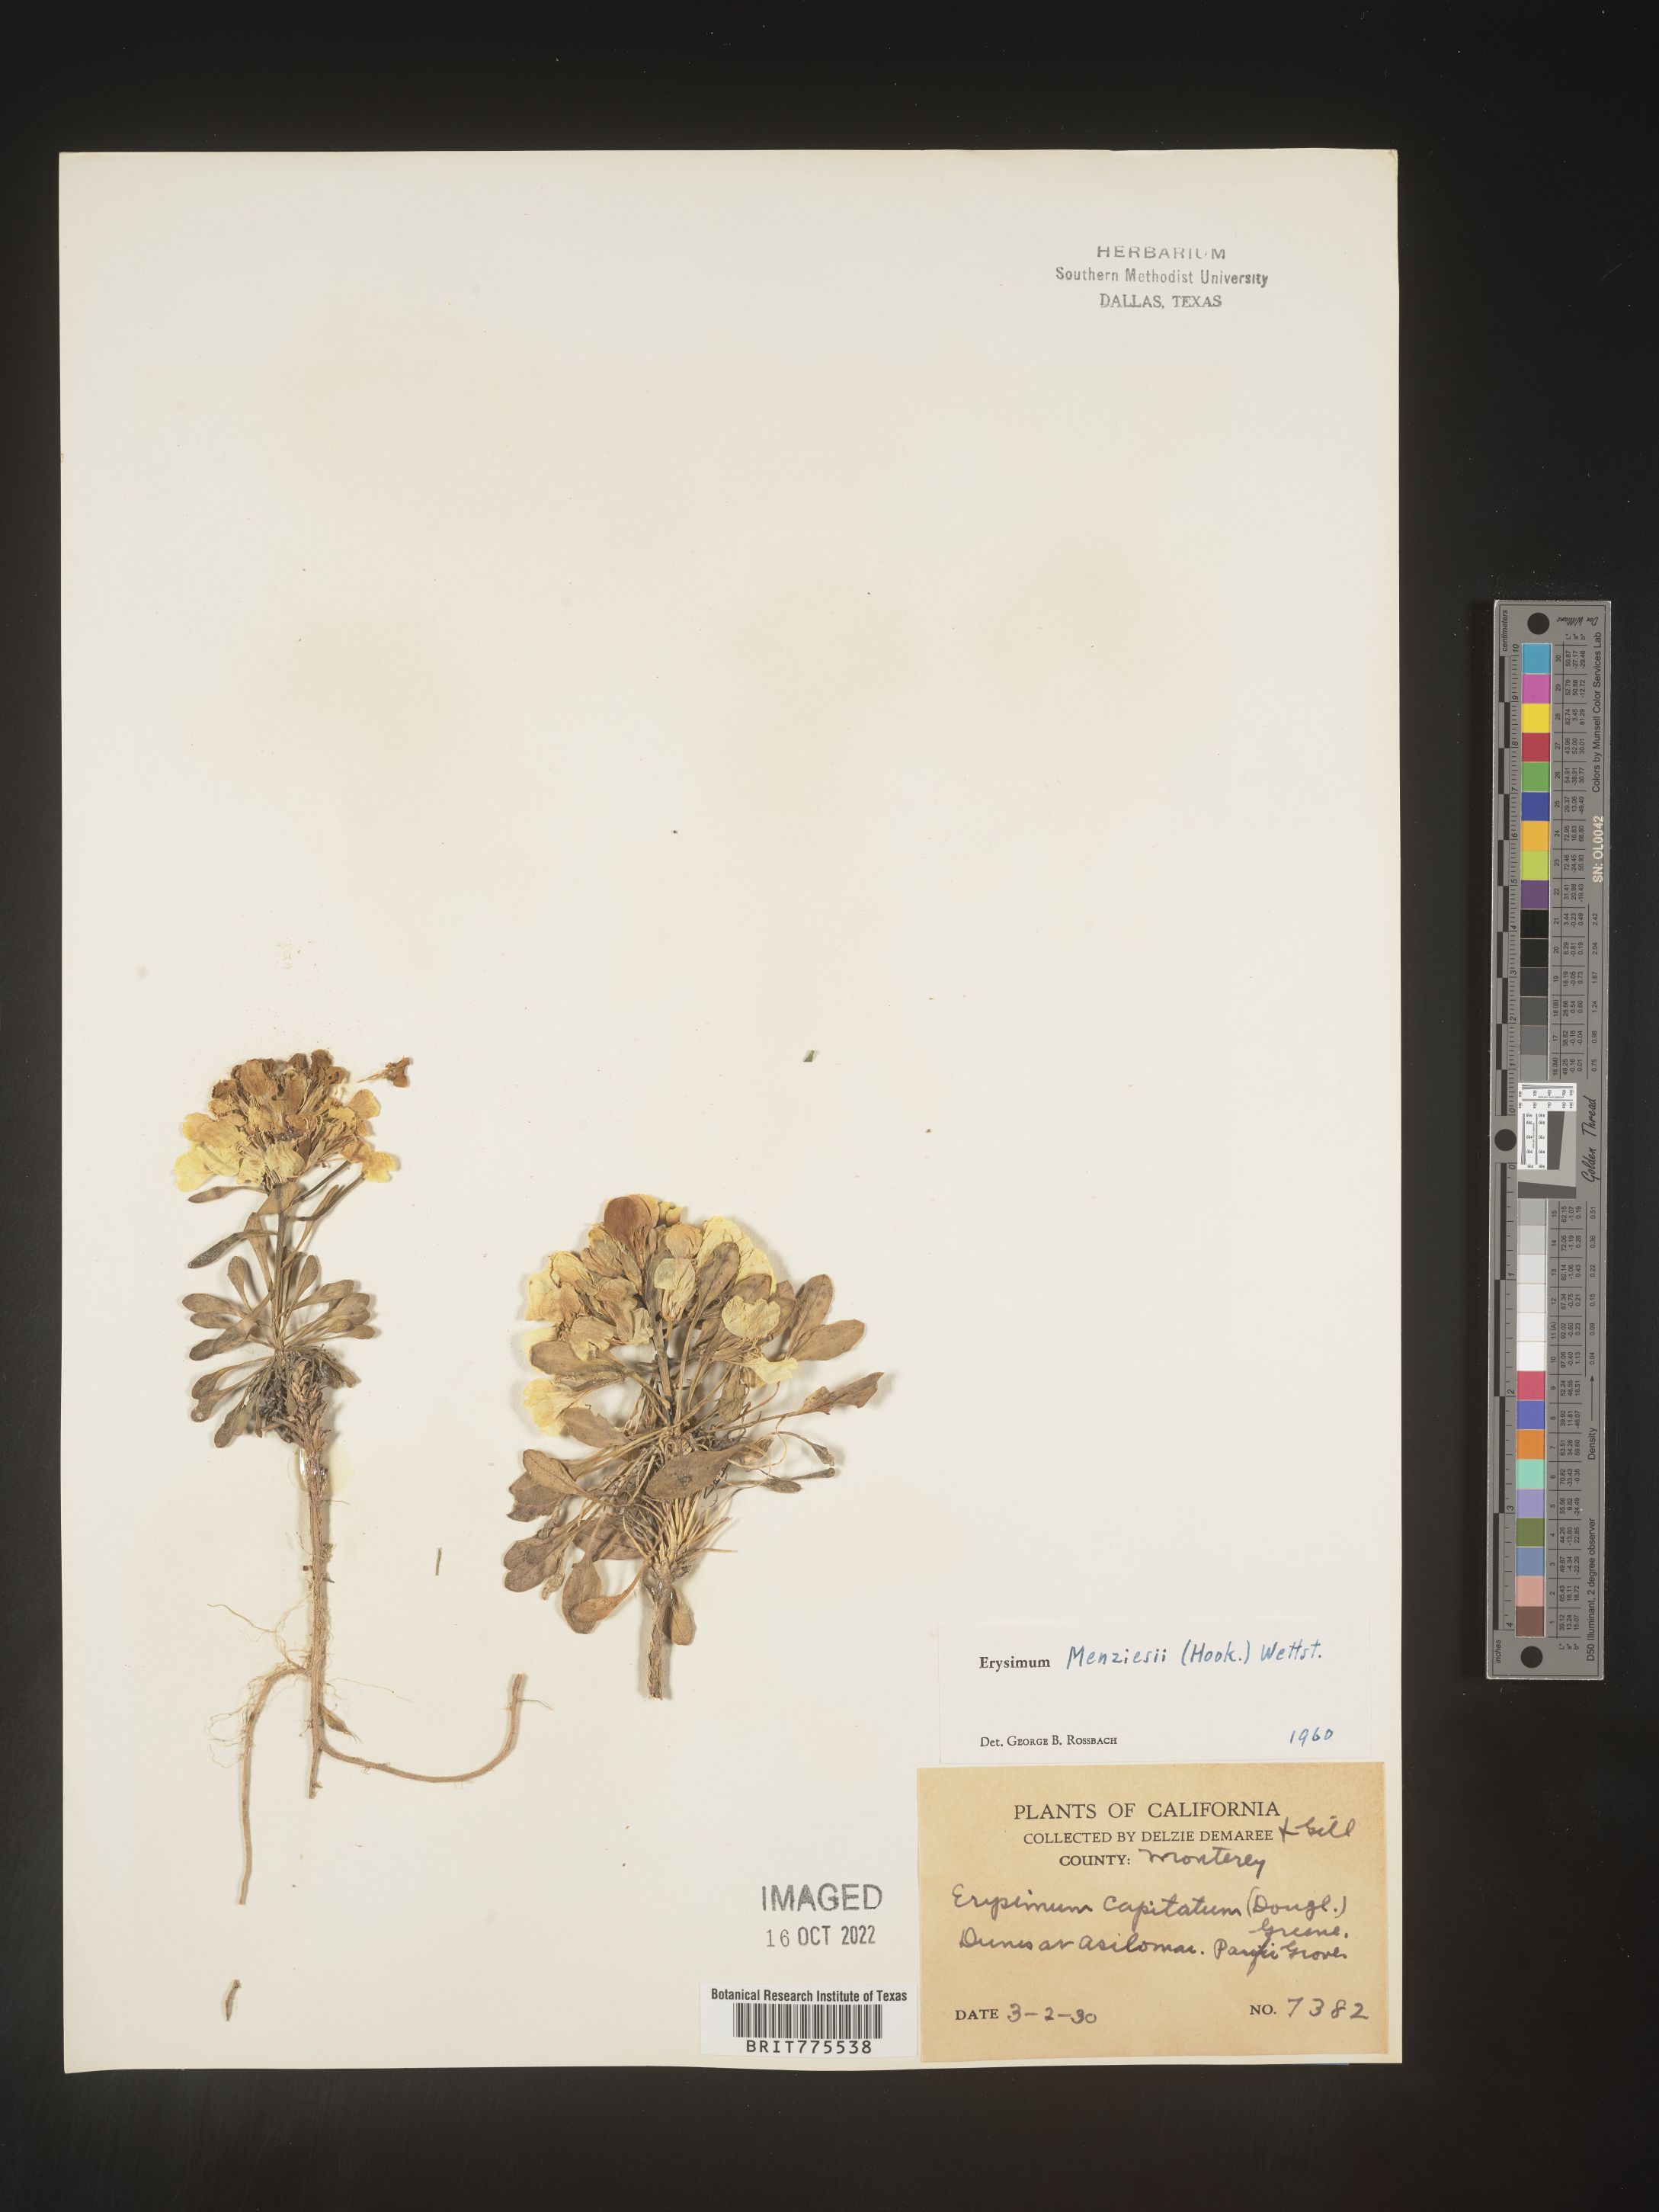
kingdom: Plantae
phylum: Tracheophyta
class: Magnoliopsida
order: Brassicales
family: Brassicaceae
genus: Erysimum
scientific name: Erysimum
